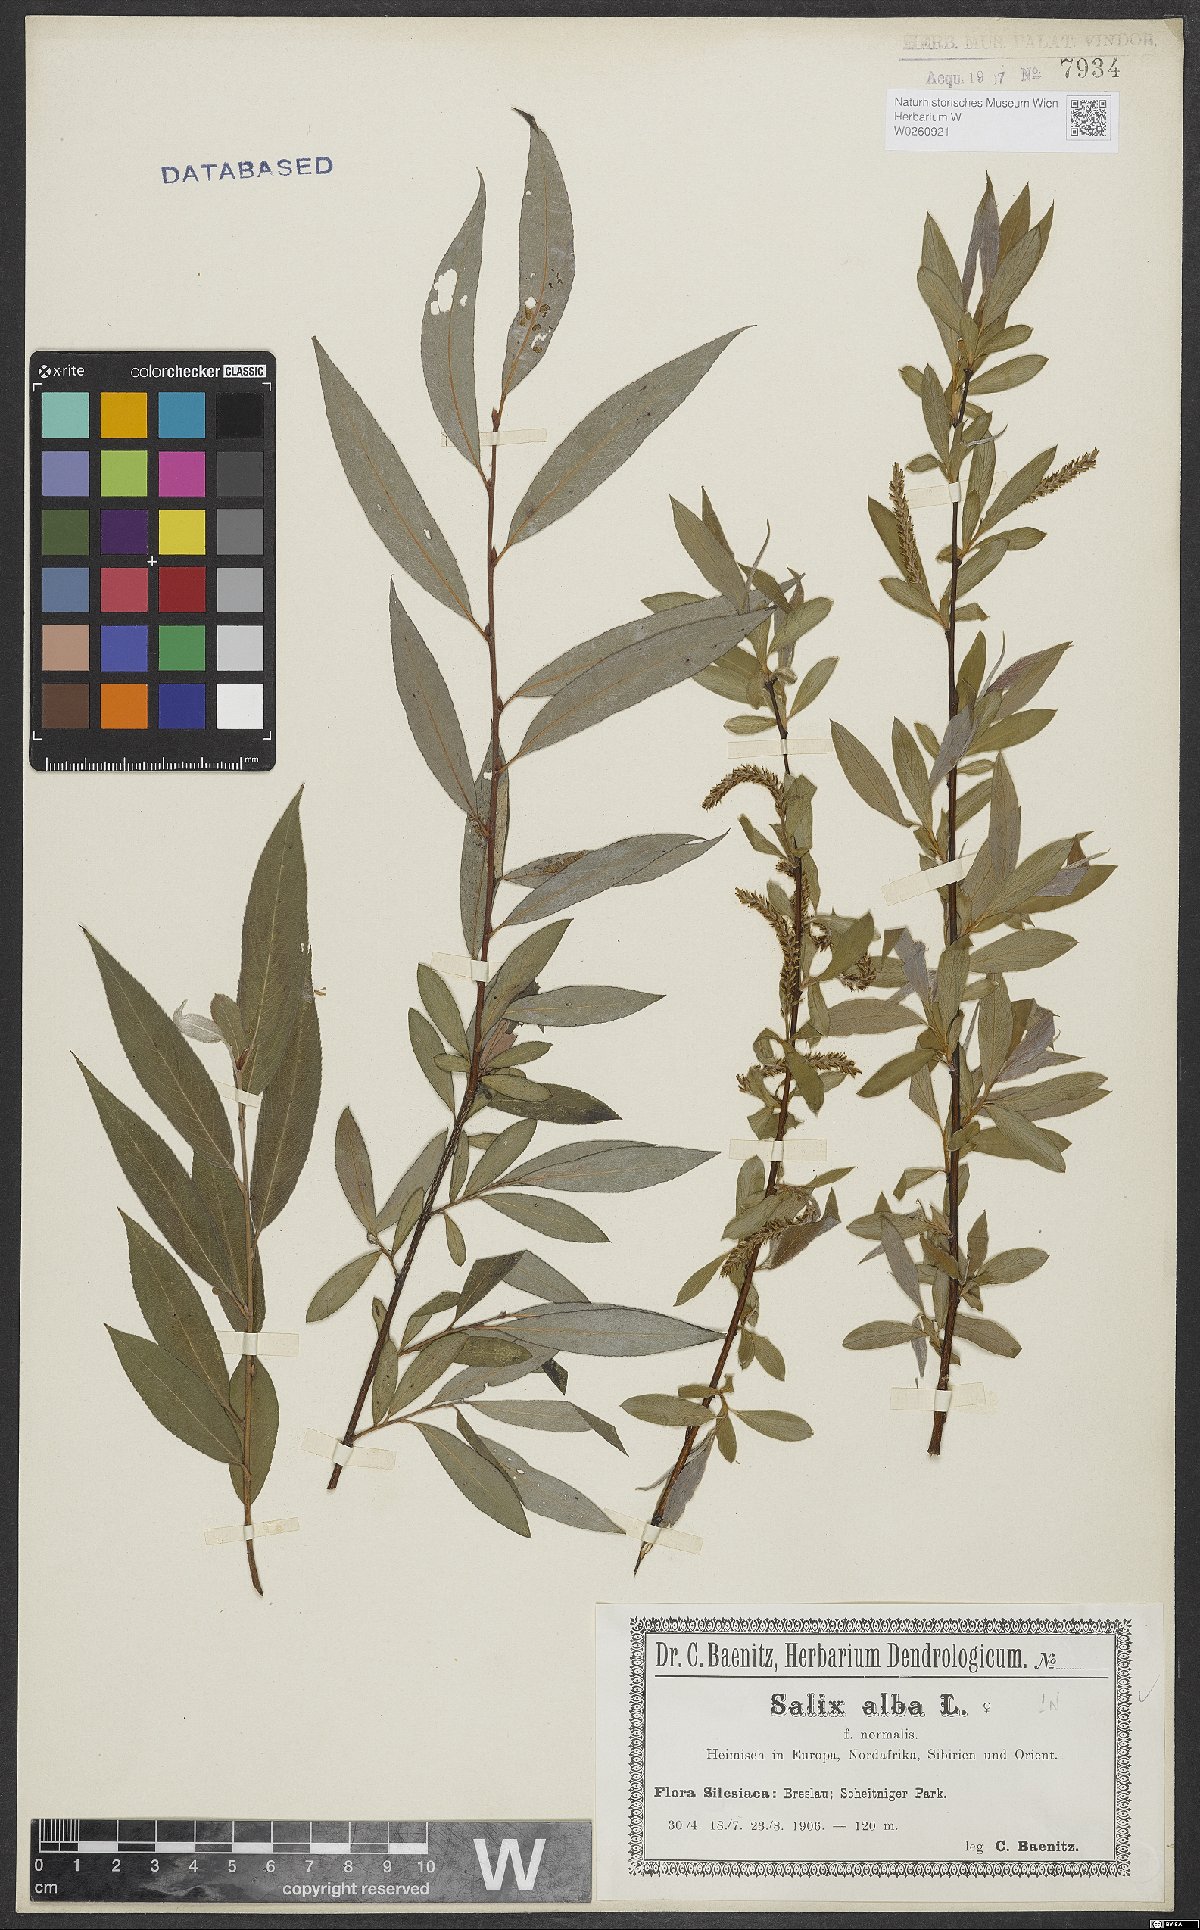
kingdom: Plantae
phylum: Tracheophyta
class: Magnoliopsida
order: Malpighiales
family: Salicaceae
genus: Salix
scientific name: Salix alba
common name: White willow
